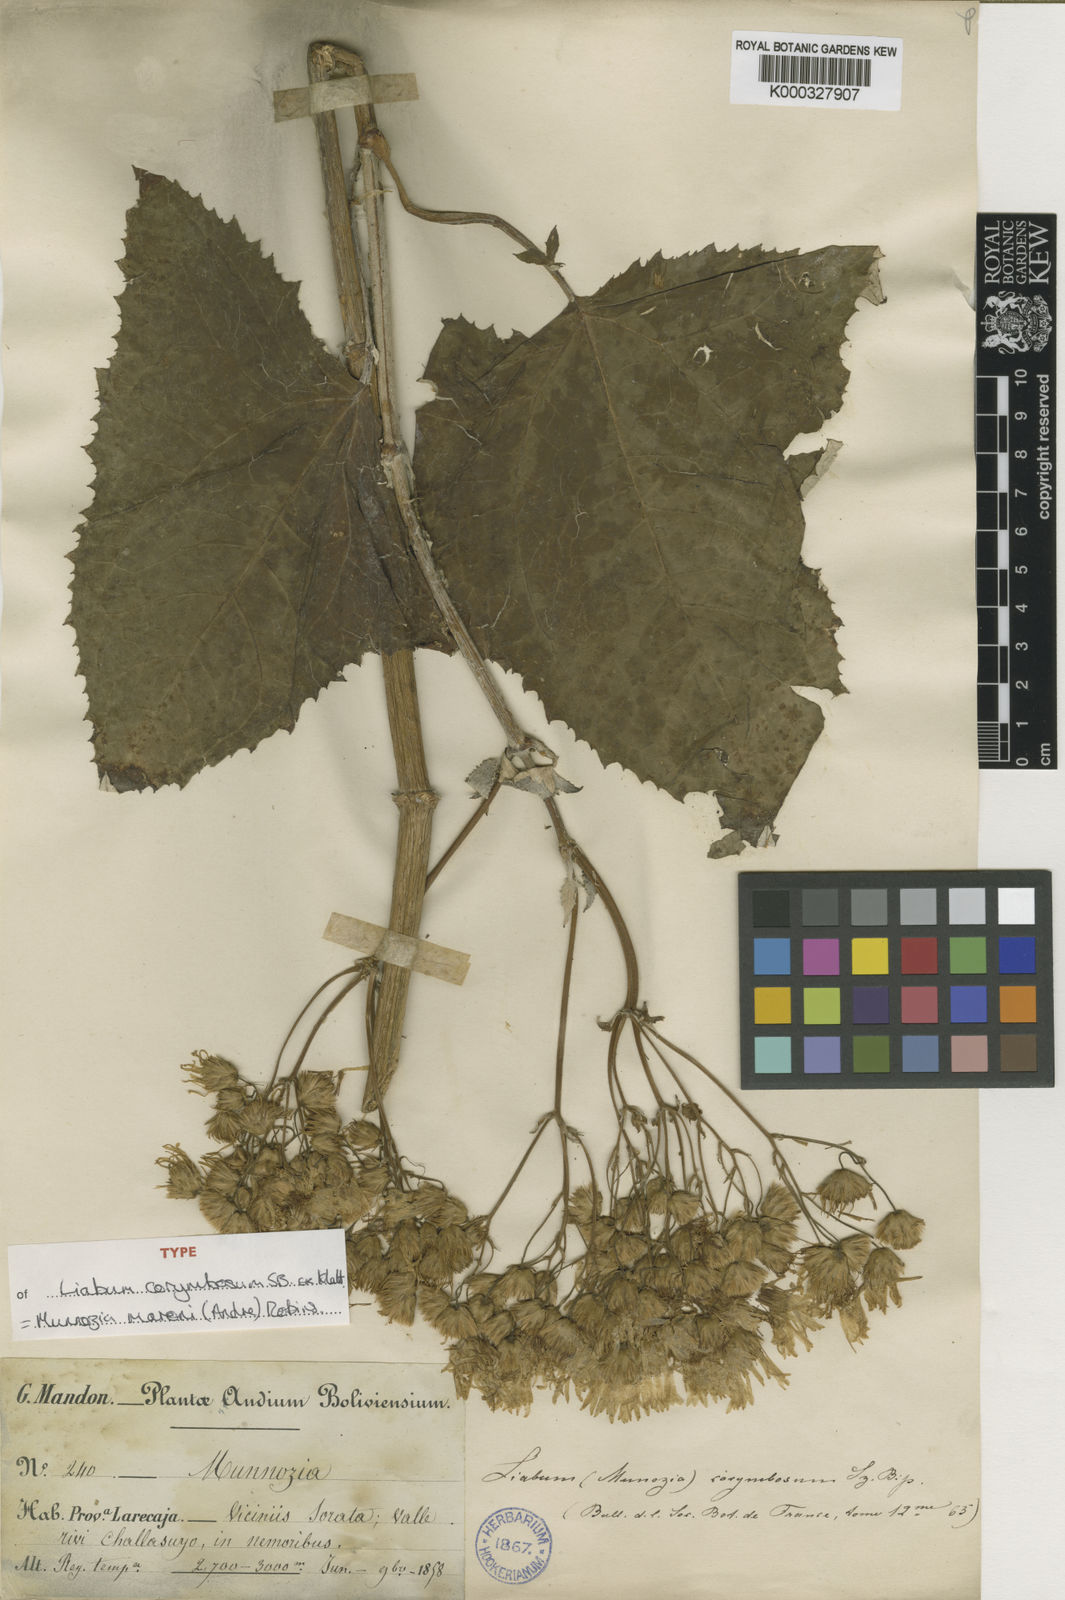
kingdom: Plantae
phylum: Tracheophyta
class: Magnoliopsida
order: Asterales
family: Asteraceae
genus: Munnozia
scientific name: Munnozia
